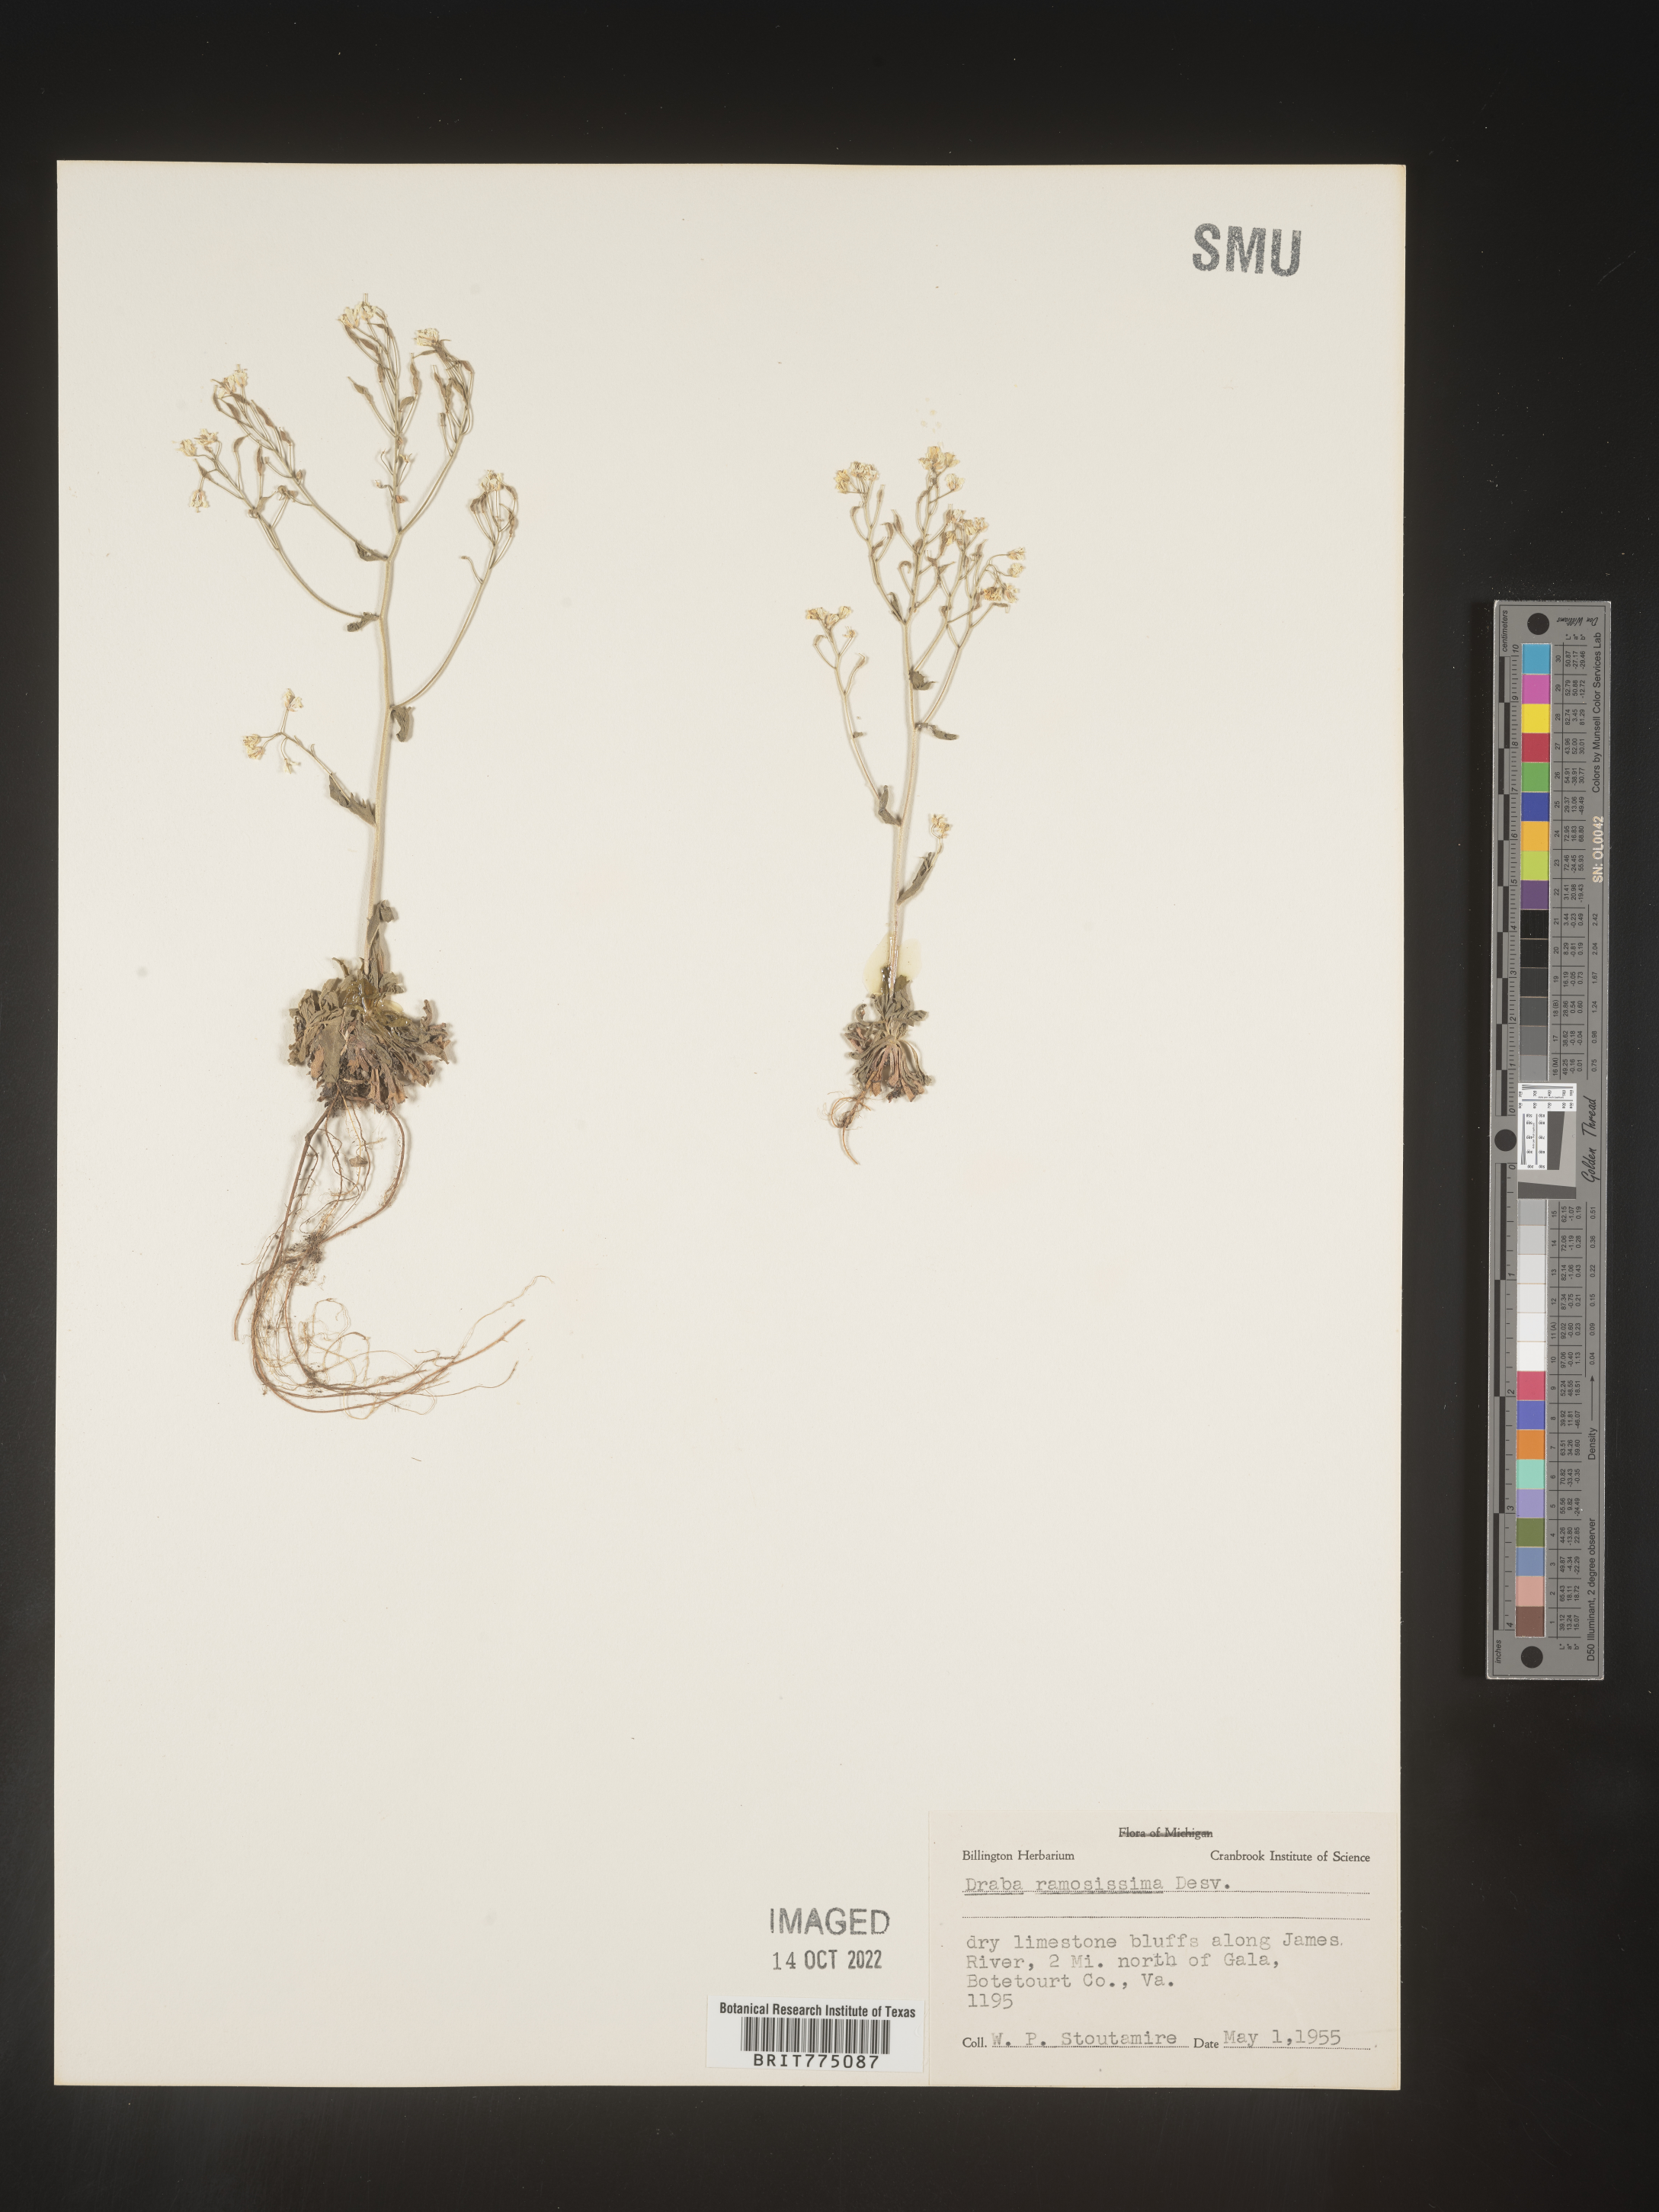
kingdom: Plantae
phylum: Tracheophyta
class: Magnoliopsida
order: Brassicales
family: Brassicaceae
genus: Draba
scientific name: Draba
